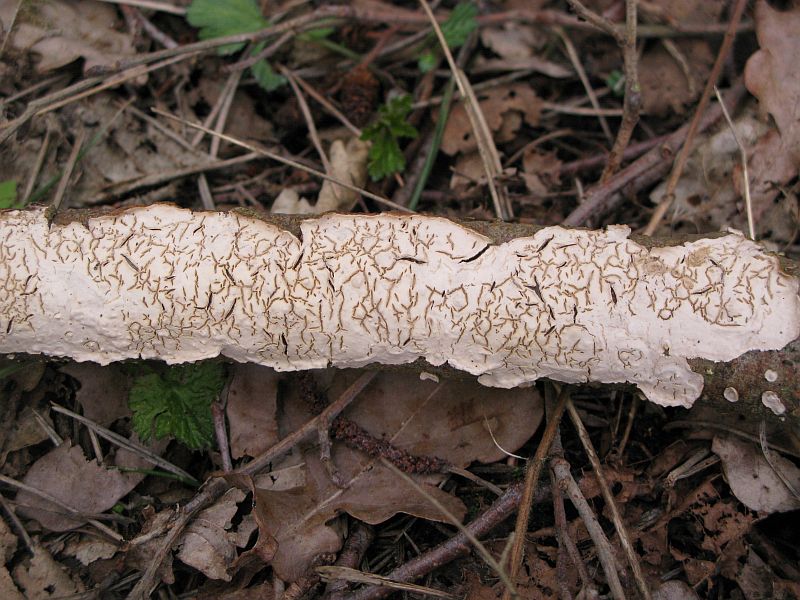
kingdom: Fungi
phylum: Basidiomycota
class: Agaricomycetes
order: Russulales
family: Stereaceae
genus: Stereum
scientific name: Stereum rugosum
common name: rynket lædersvamp
